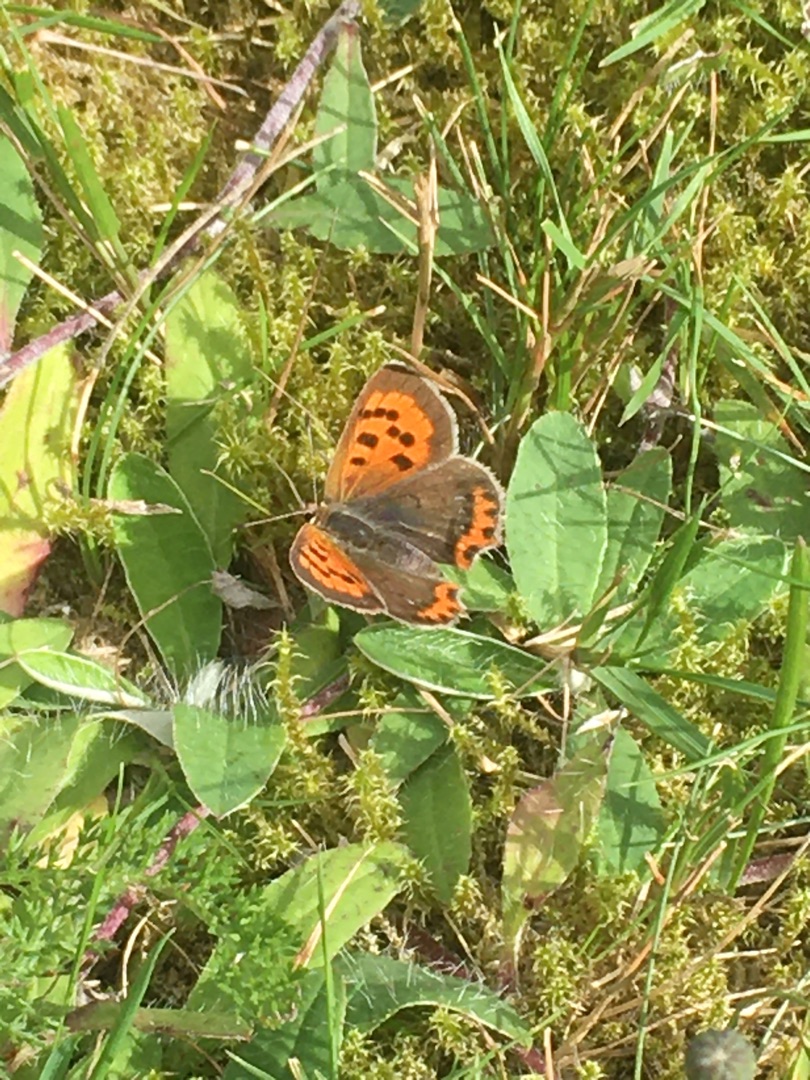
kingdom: Animalia
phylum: Arthropoda
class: Insecta
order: Lepidoptera
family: Lycaenidae
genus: Lycaena
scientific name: Lycaena phlaeas
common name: Lille ildfugl
